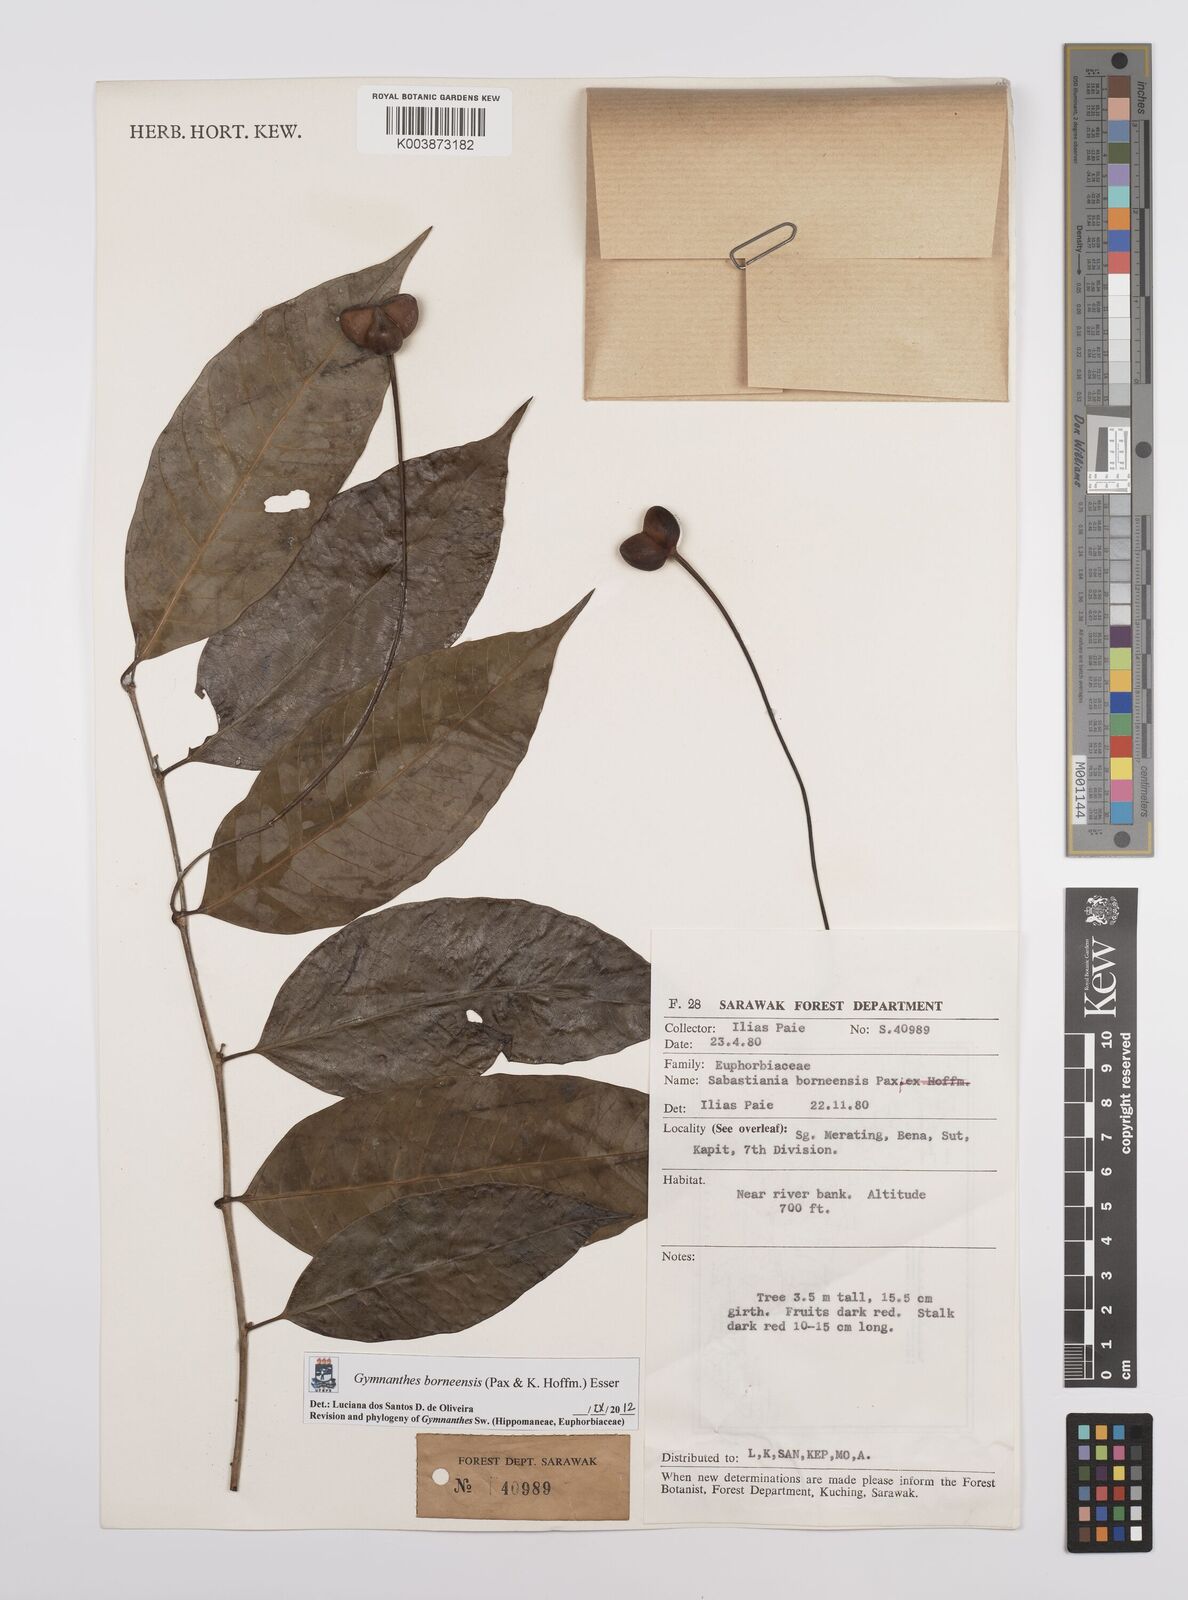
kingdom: Plantae
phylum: Tracheophyta
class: Magnoliopsida
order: Malpighiales
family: Euphorbiaceae
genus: Gymnanthes
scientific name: Gymnanthes borneensis
